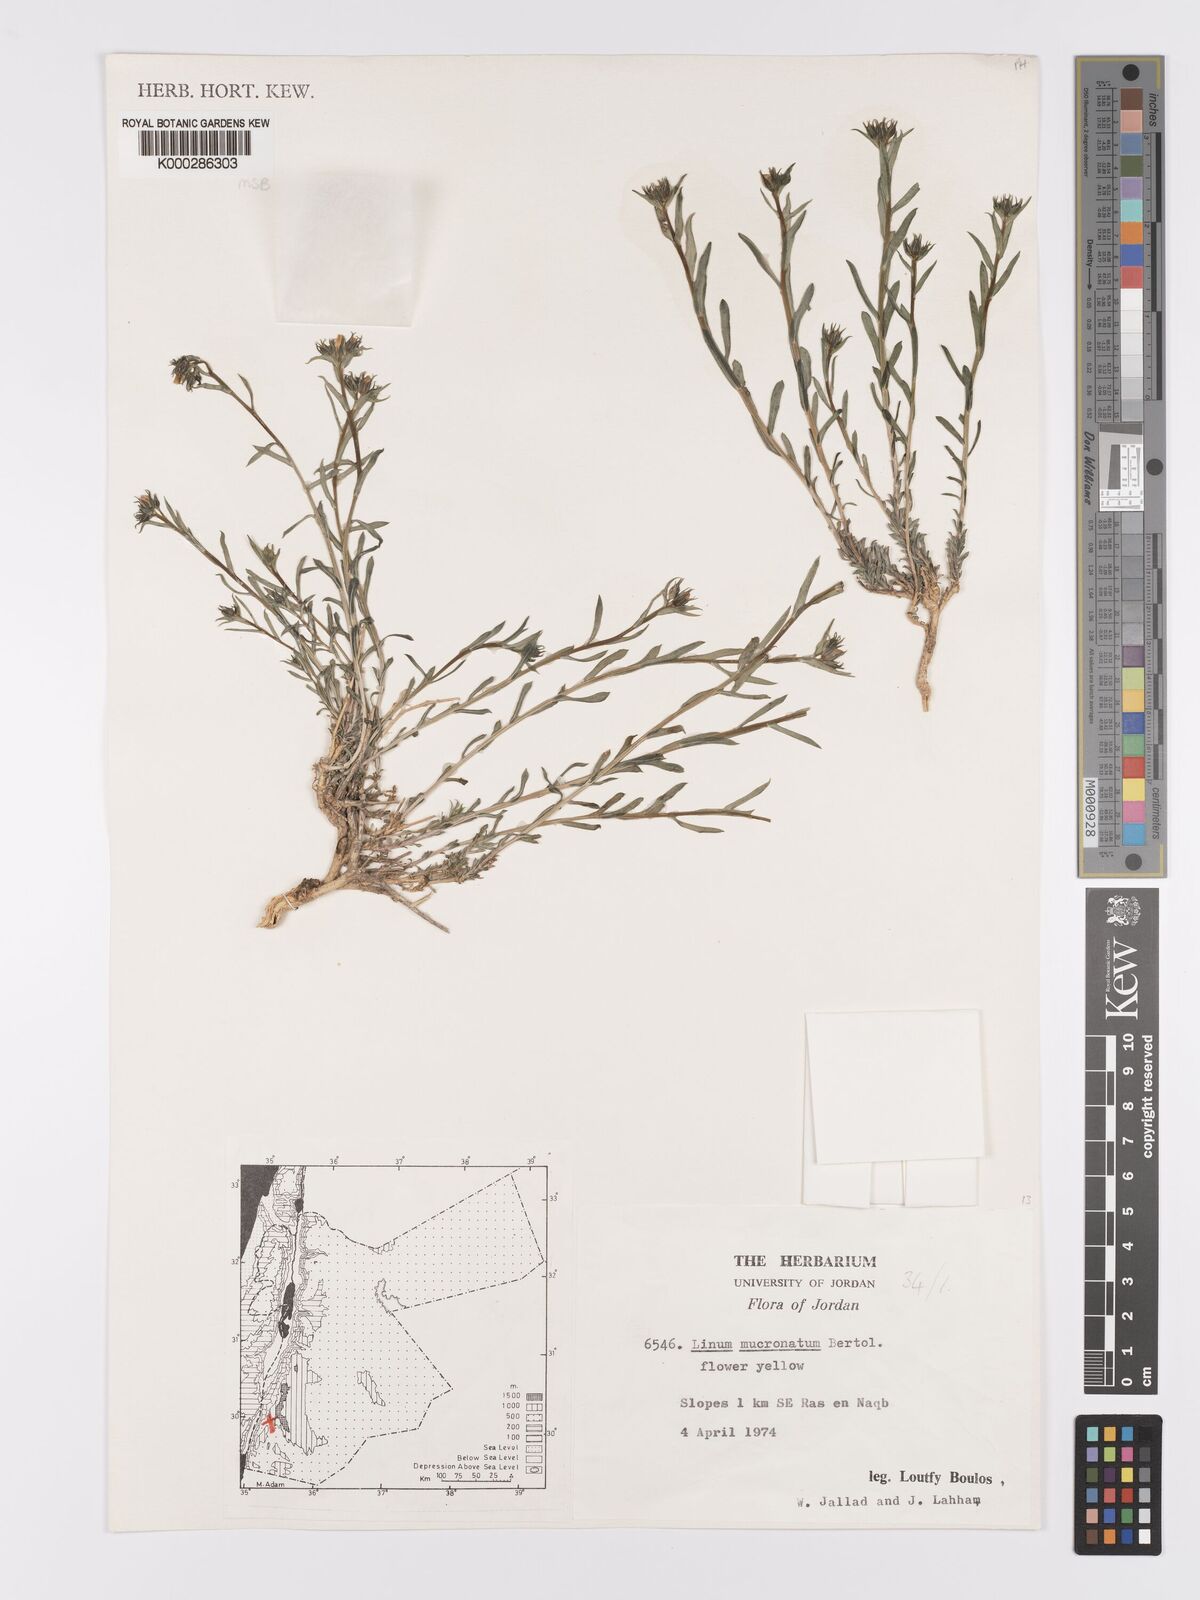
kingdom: Plantae
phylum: Tracheophyta
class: Magnoliopsida
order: Malpighiales
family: Linaceae
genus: Linum
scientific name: Linum mucronatum
